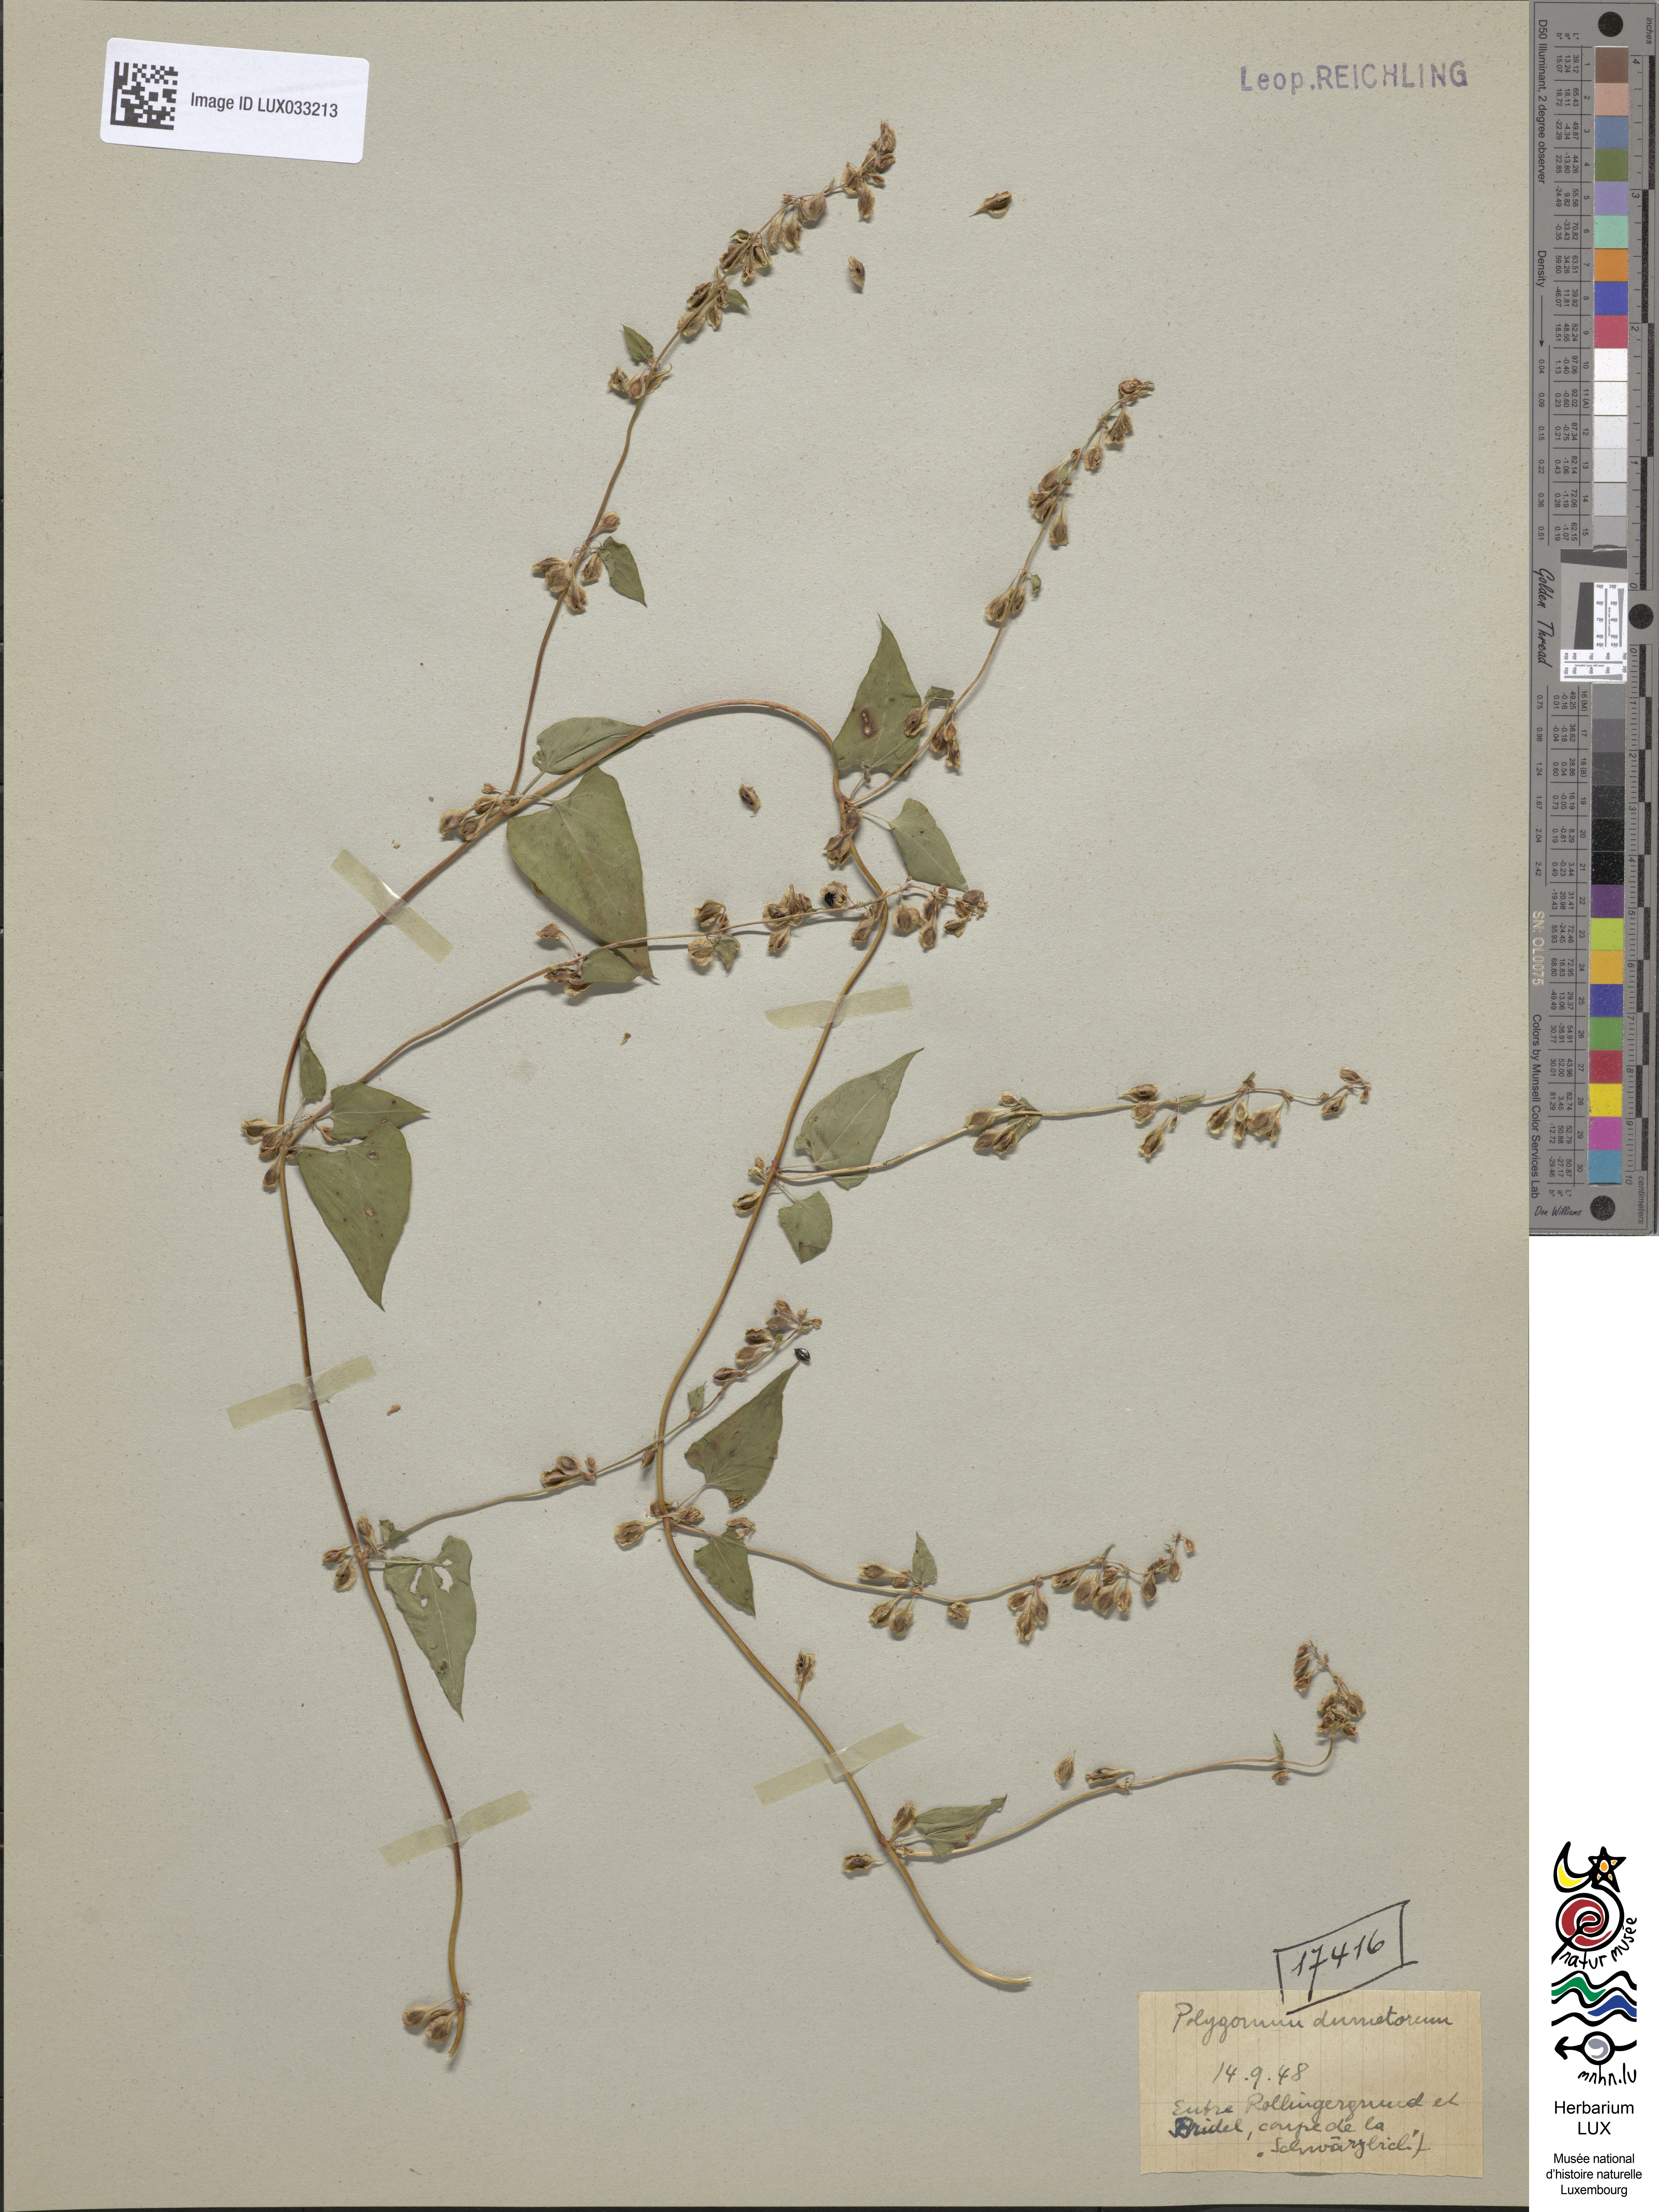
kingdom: Plantae
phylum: Tracheophyta
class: Magnoliopsida
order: Caryophyllales
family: Polygonaceae
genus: Fallopia
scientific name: Fallopia dumetorum
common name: Copse-bindweed
